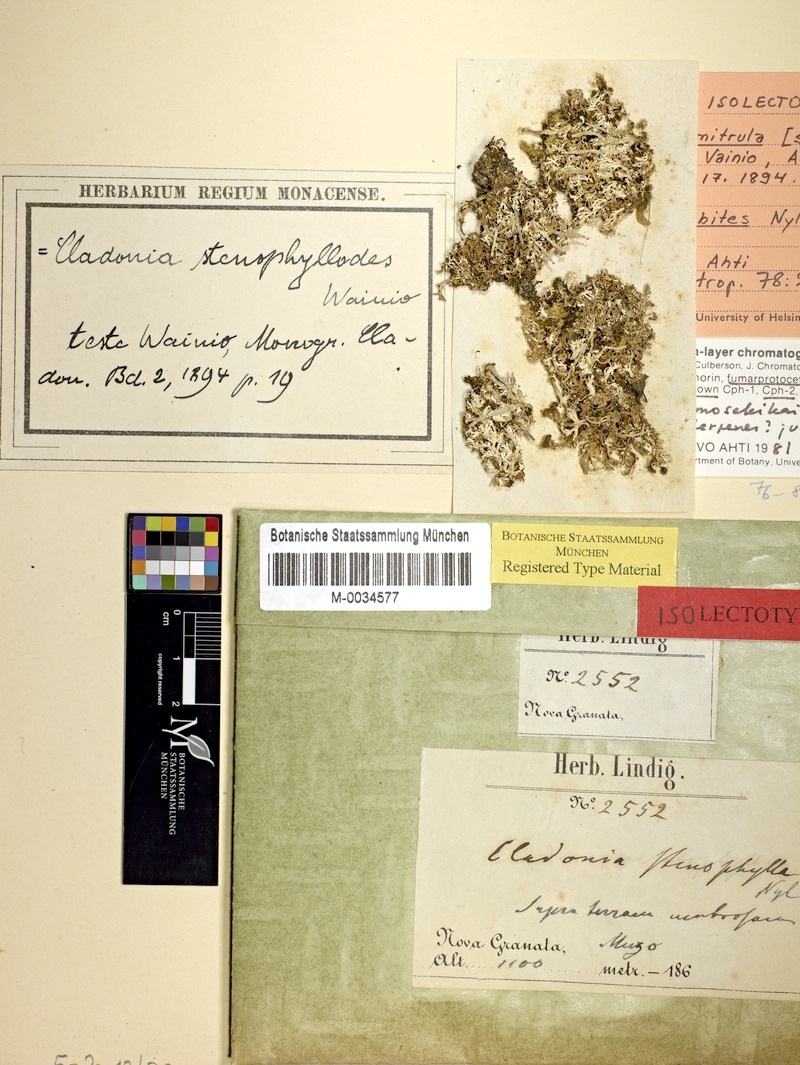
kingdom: Fungi
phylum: Ascomycota
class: Lecanoromycetes
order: Lecanorales
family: Cladoniaceae
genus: Cladonia
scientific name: Cladonia corymbites
